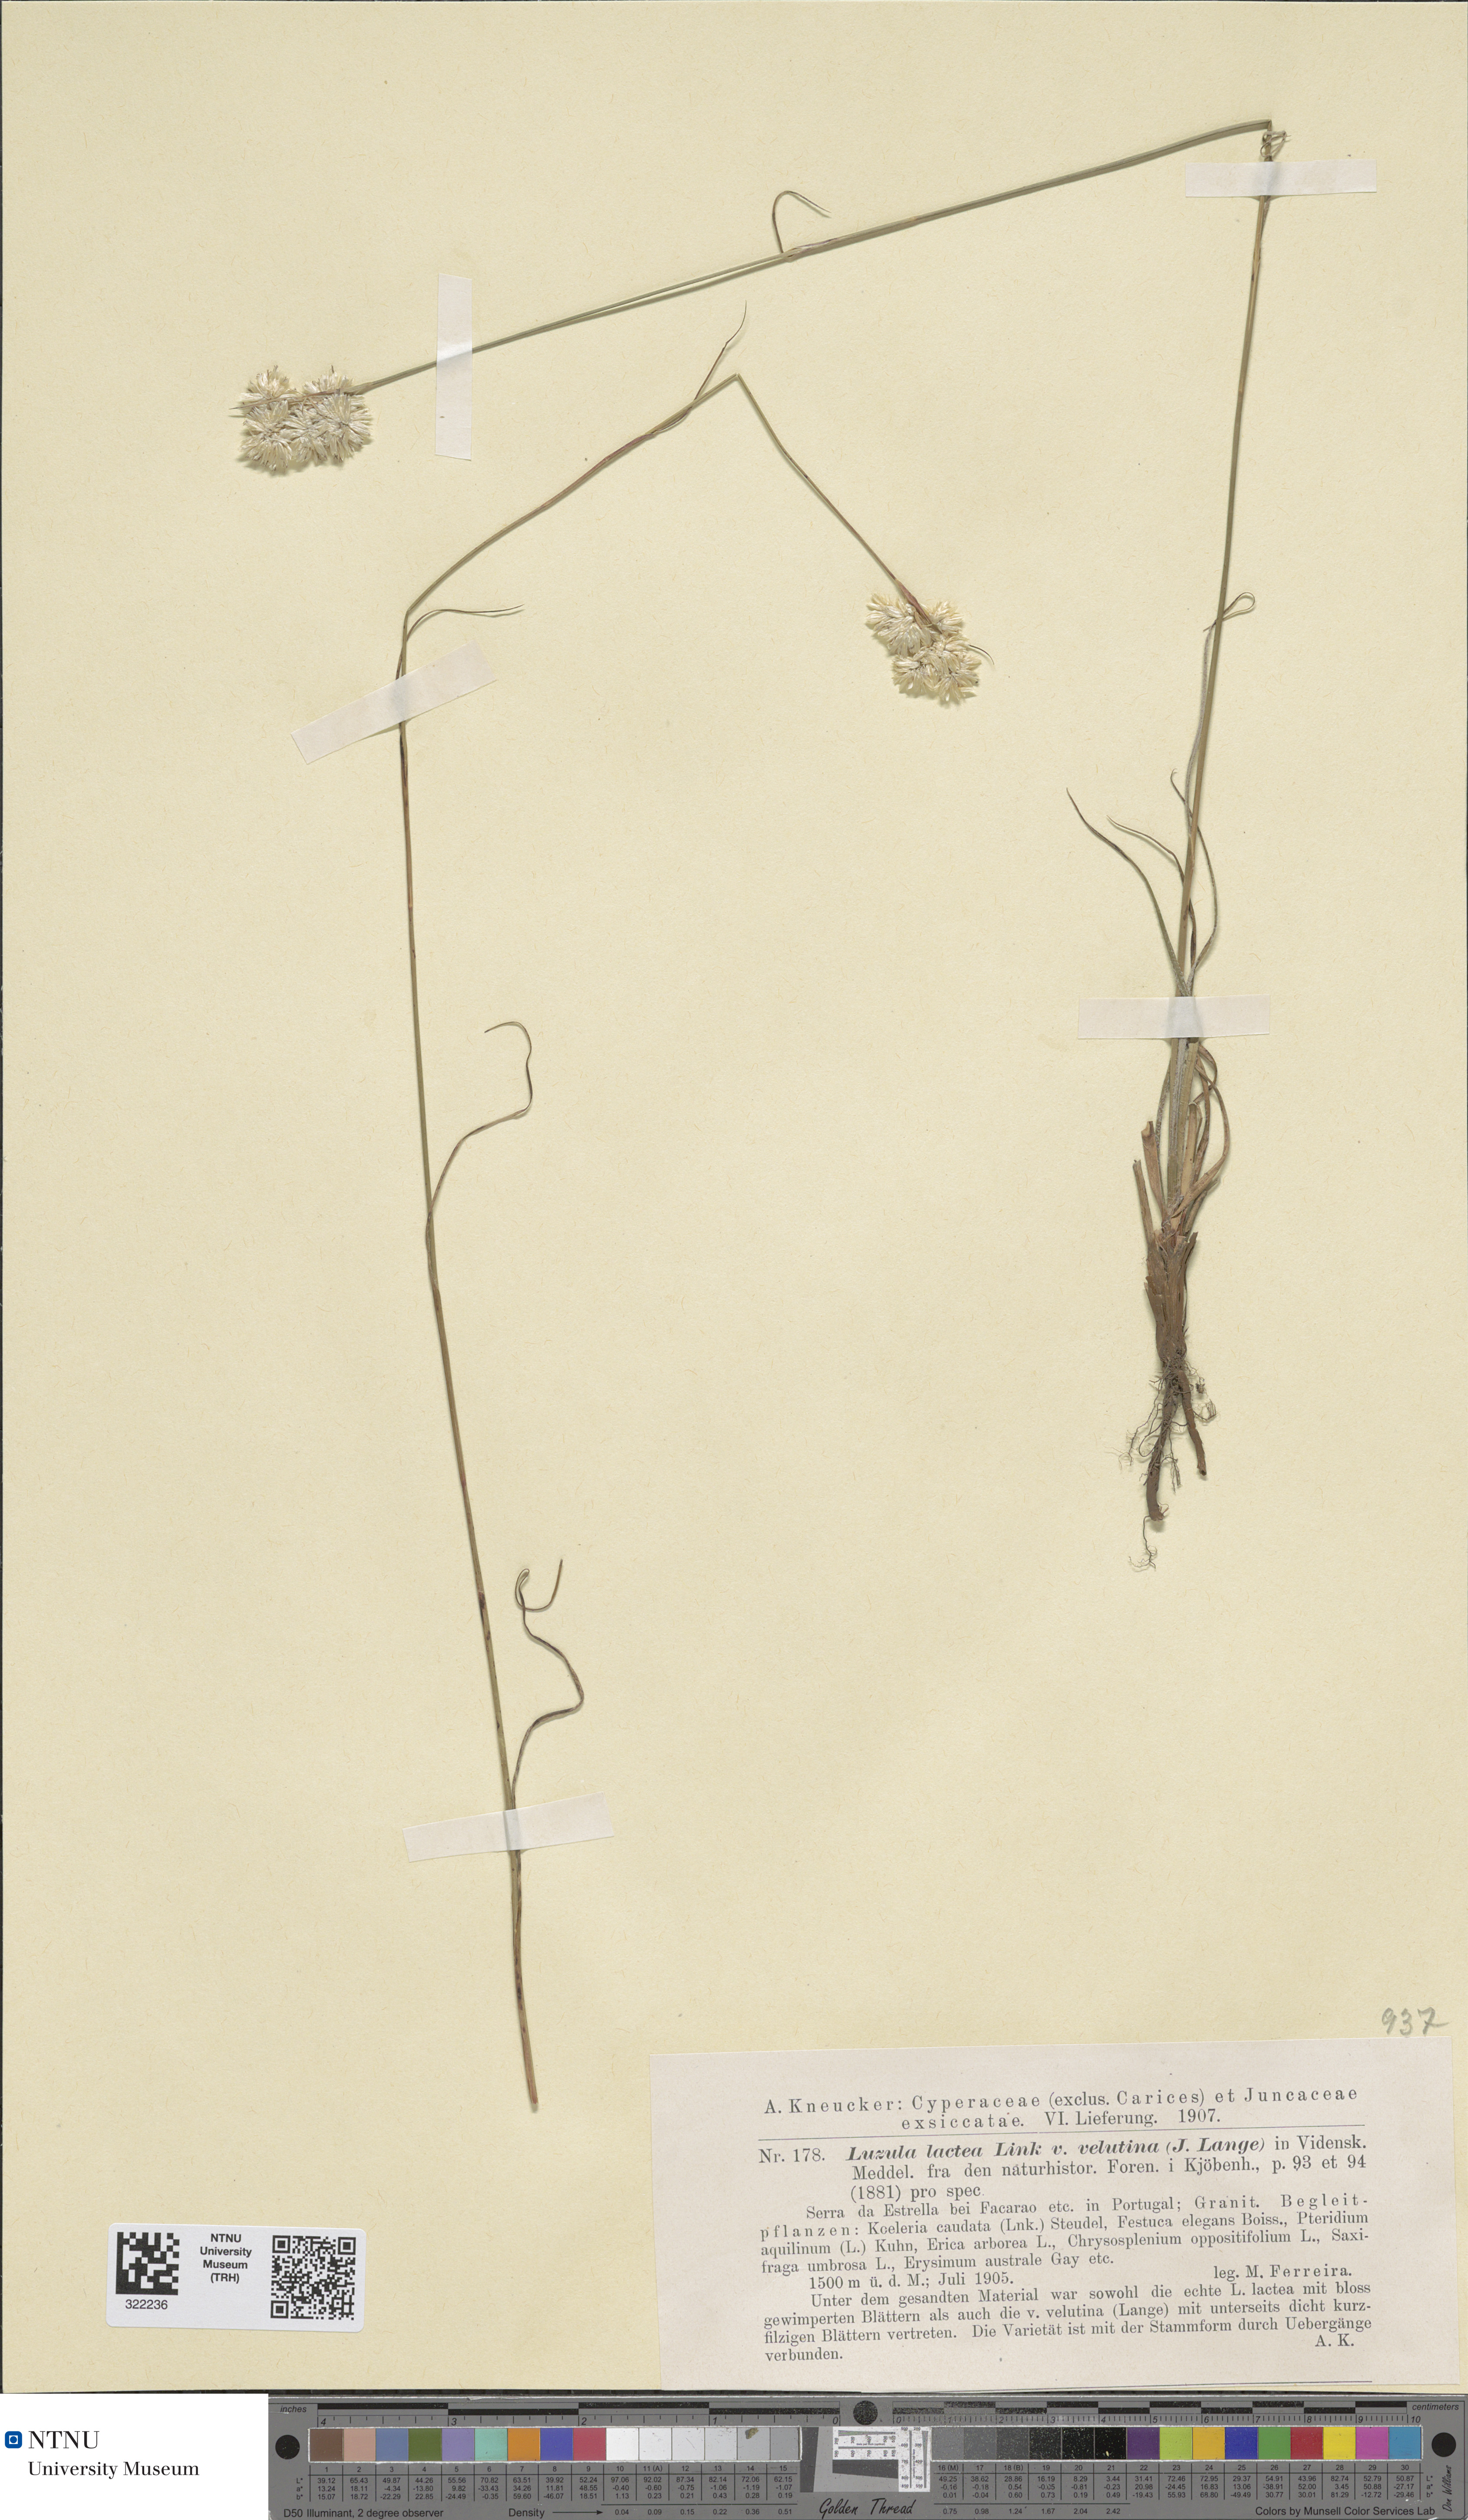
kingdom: Plantae
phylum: Tracheophyta
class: Liliopsida
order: Poales
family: Juncaceae
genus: Luzula
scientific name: Luzula lactea
